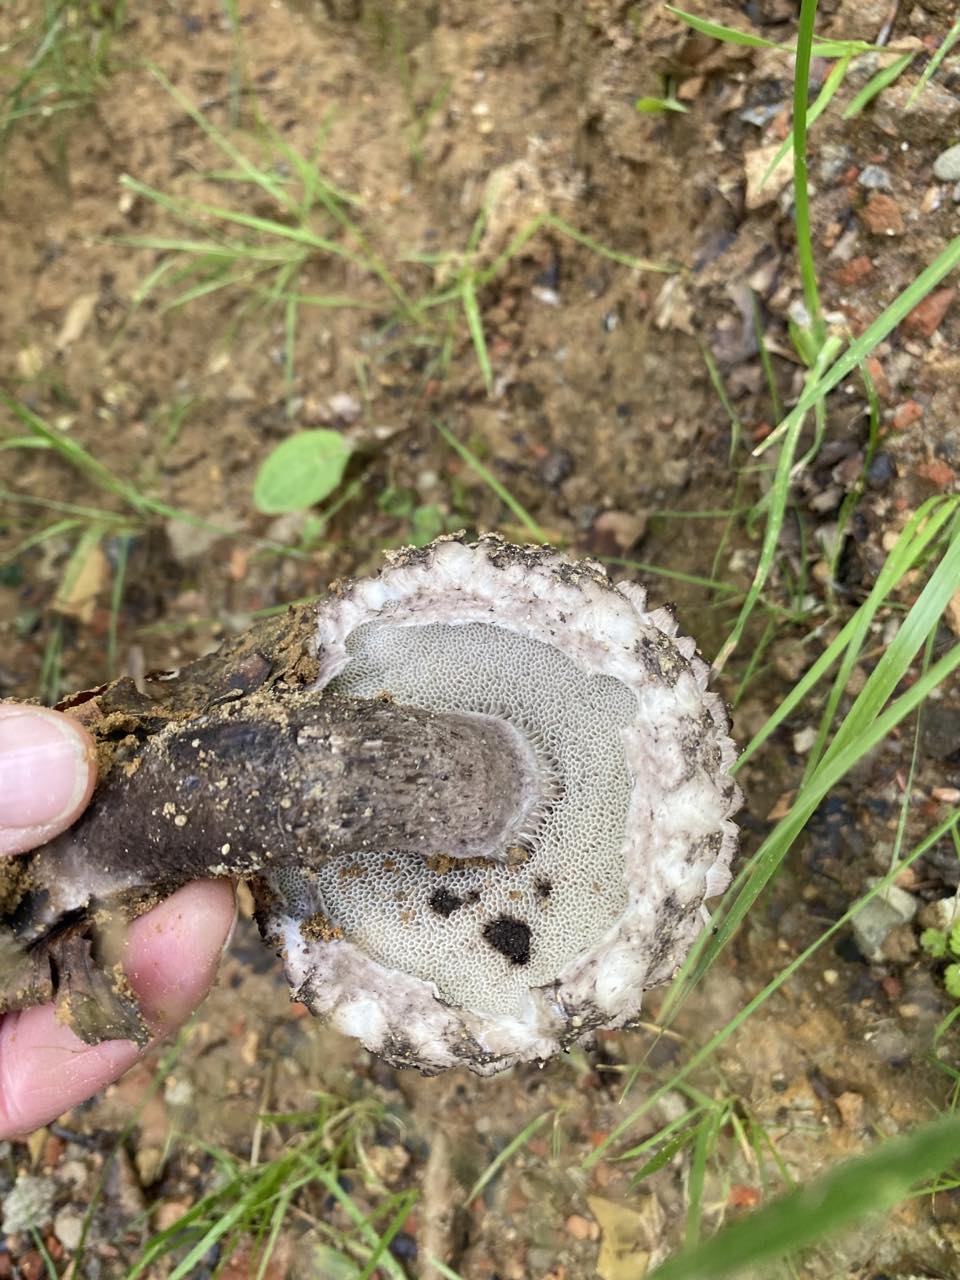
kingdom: Fungi
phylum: Basidiomycota
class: Agaricomycetes
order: Boletales
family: Boletaceae
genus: Strobilomyces
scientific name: Strobilomyces strobilaceus
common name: koglerørhat
